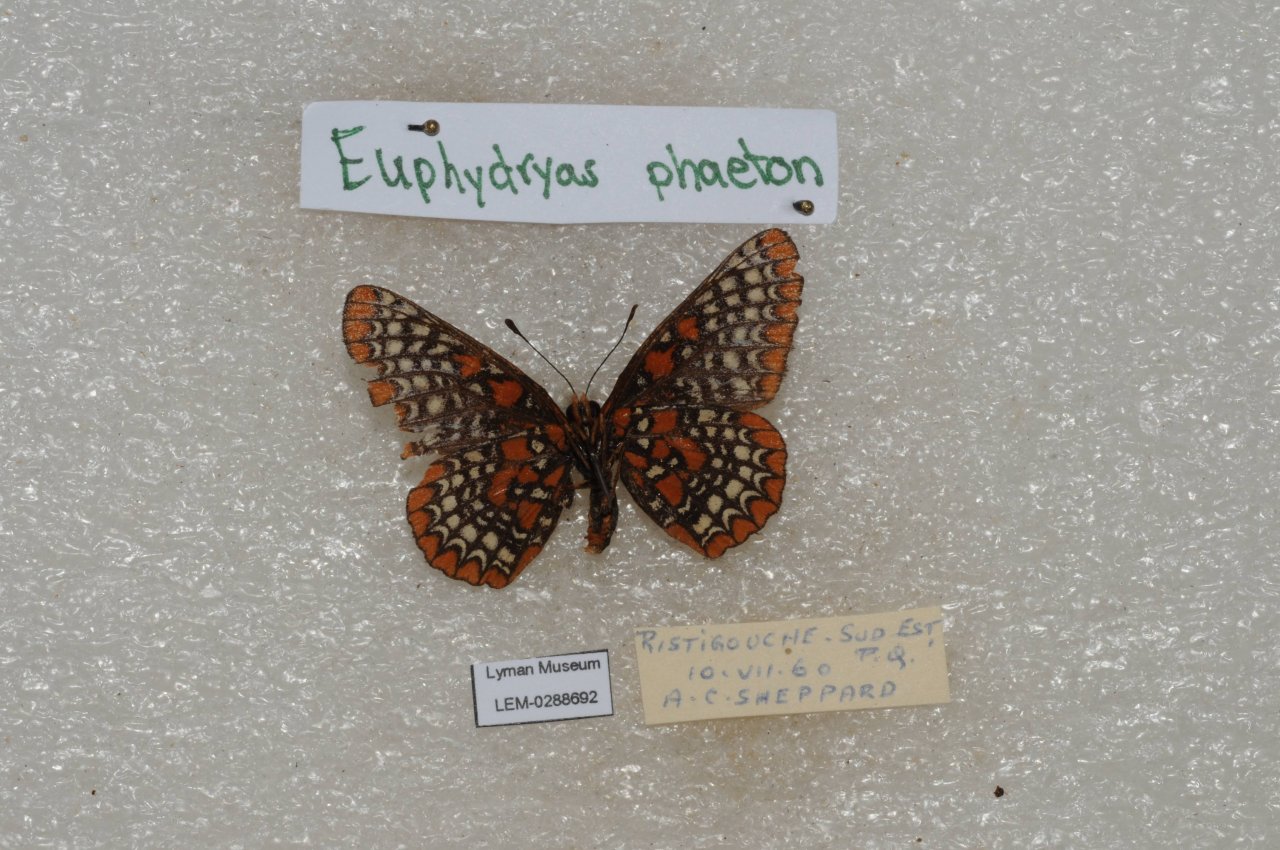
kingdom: Animalia
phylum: Arthropoda
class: Insecta
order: Lepidoptera
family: Nymphalidae
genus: Euphydryas
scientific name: Euphydryas phaeton
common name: Baltimore Checkerspot
